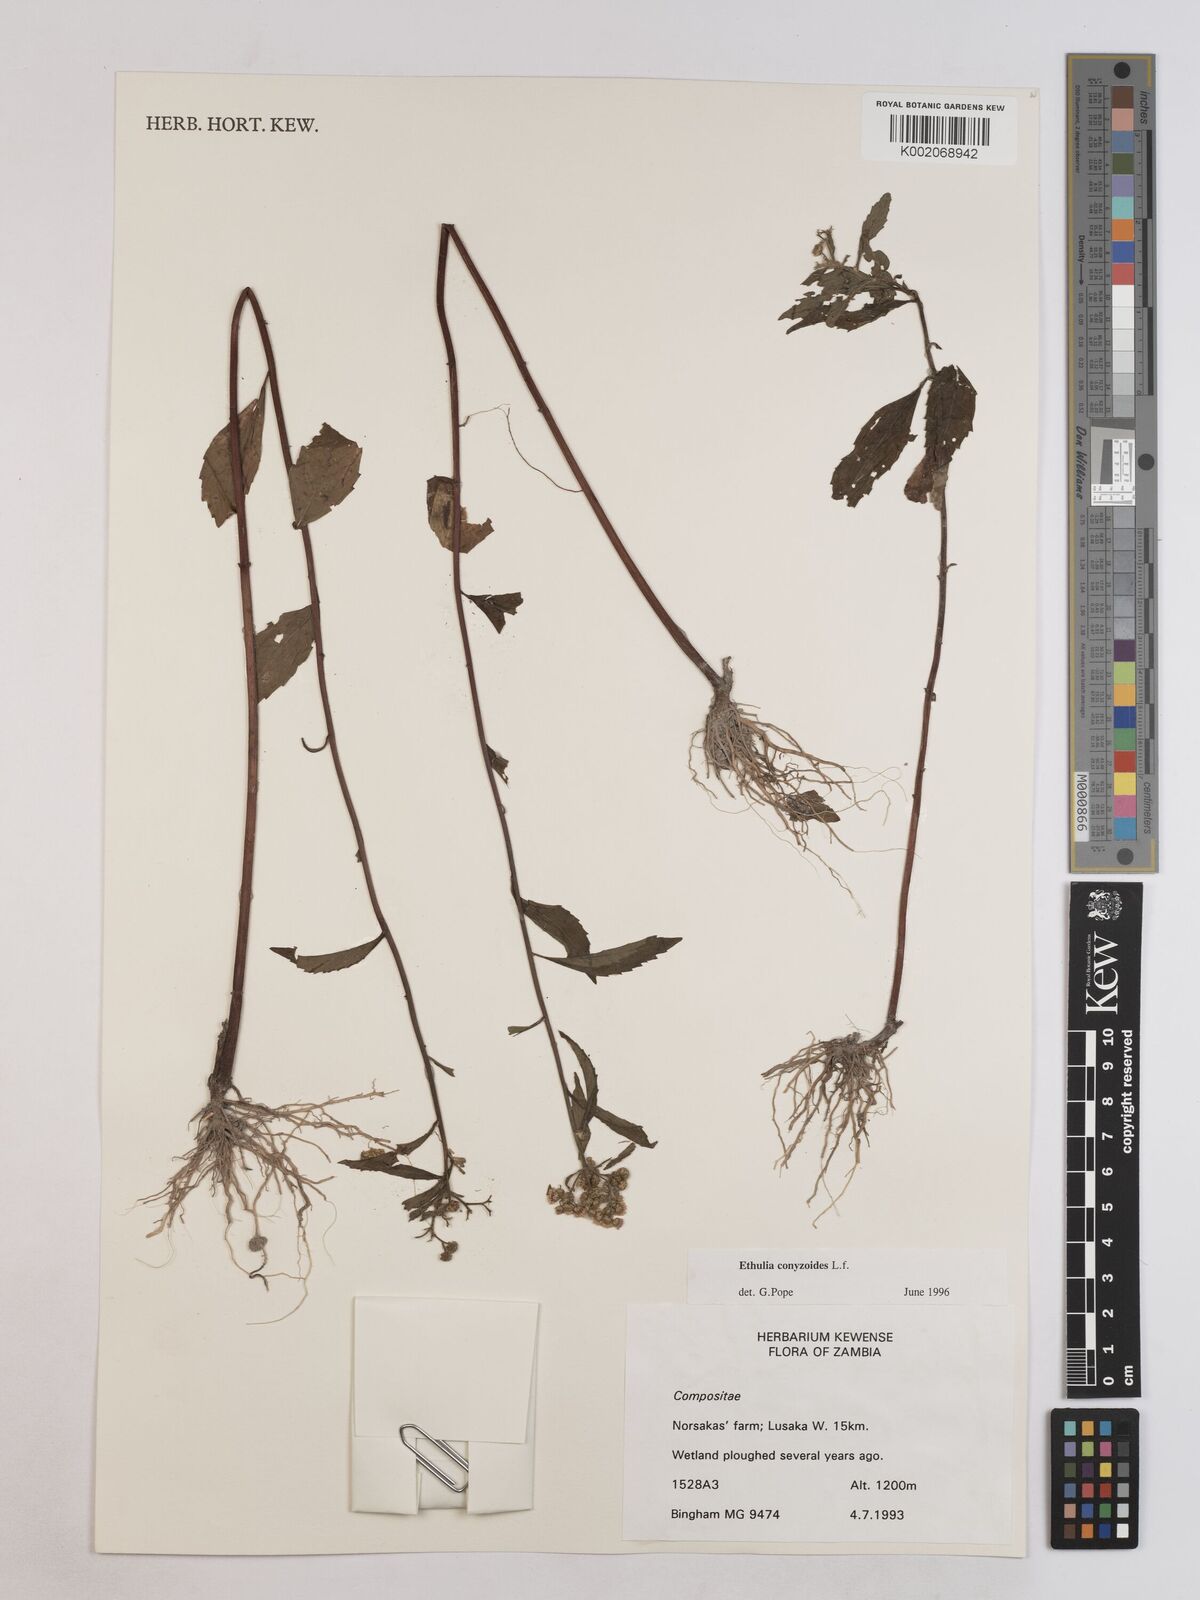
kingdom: Plantae
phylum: Tracheophyta
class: Magnoliopsida
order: Asterales
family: Asteraceae
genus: Ethulia
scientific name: Ethulia conyzoides
